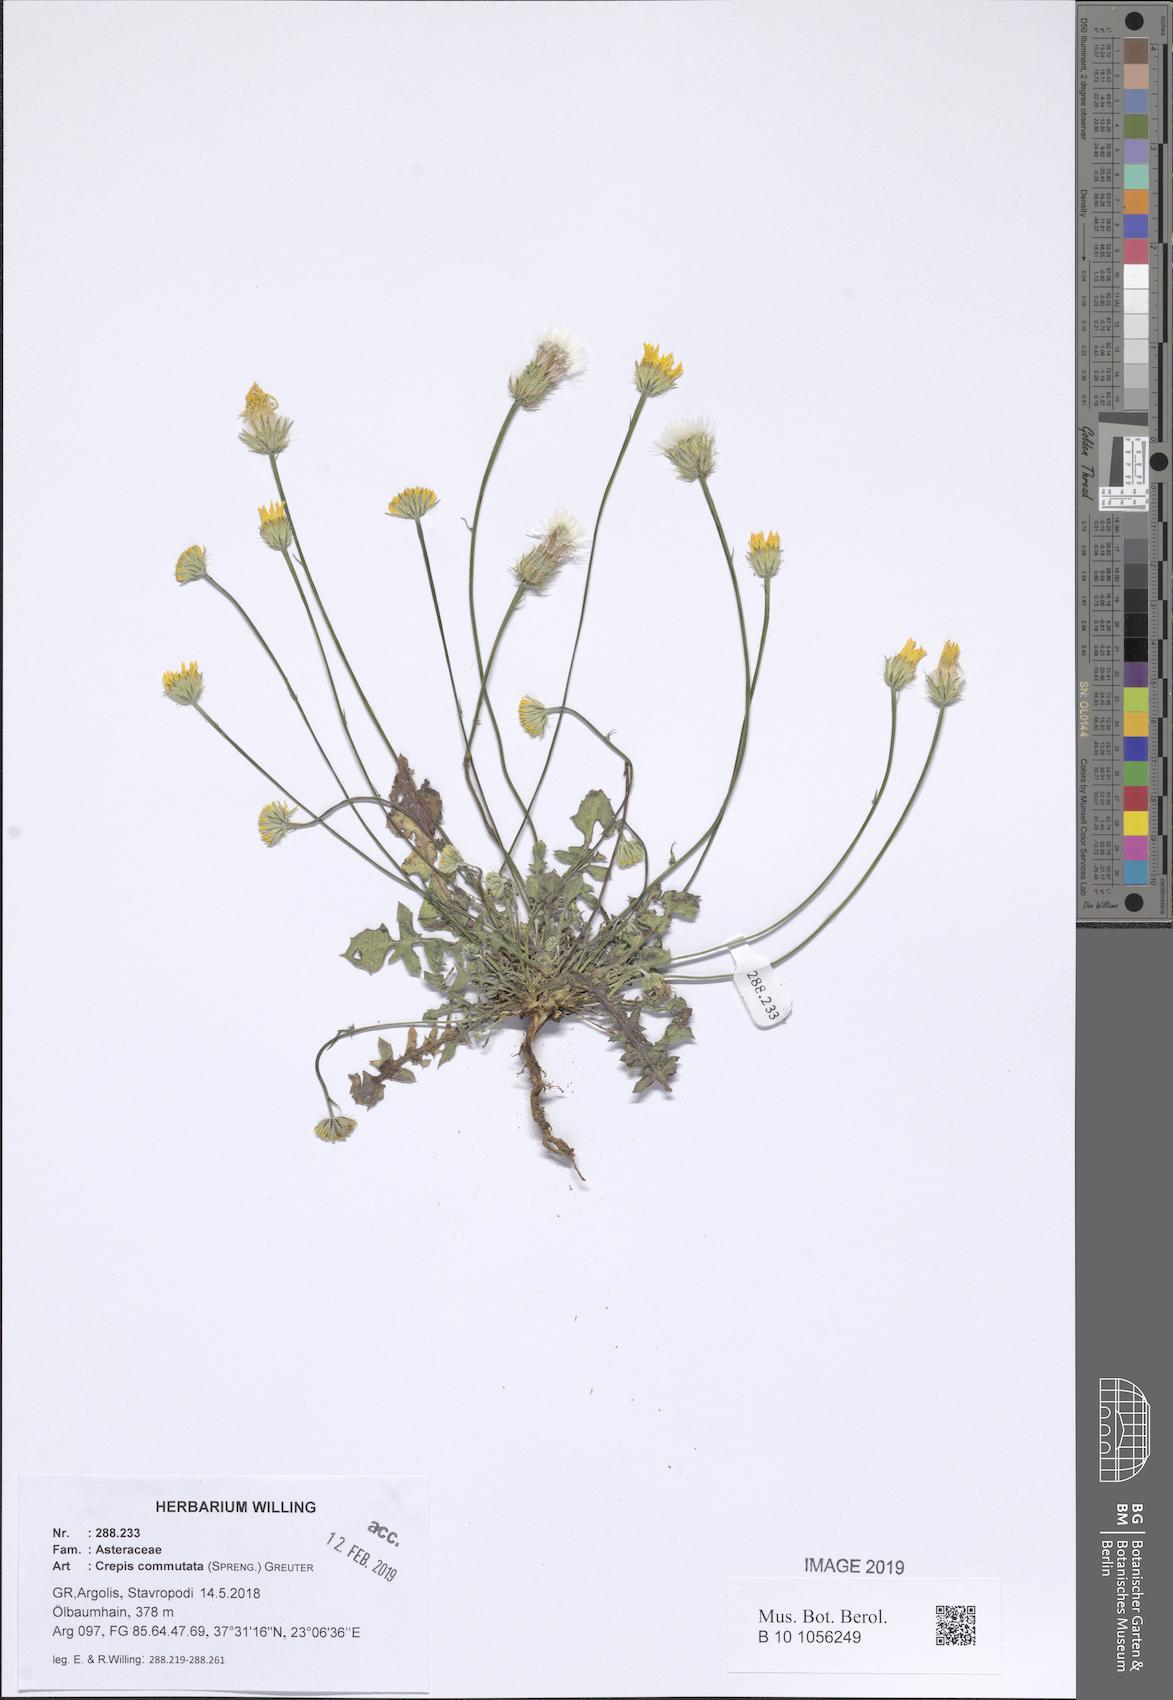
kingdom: Plantae
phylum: Tracheophyta
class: Magnoliopsida
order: Asterales
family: Asteraceae
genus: Crepis
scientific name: Crepis commutata
